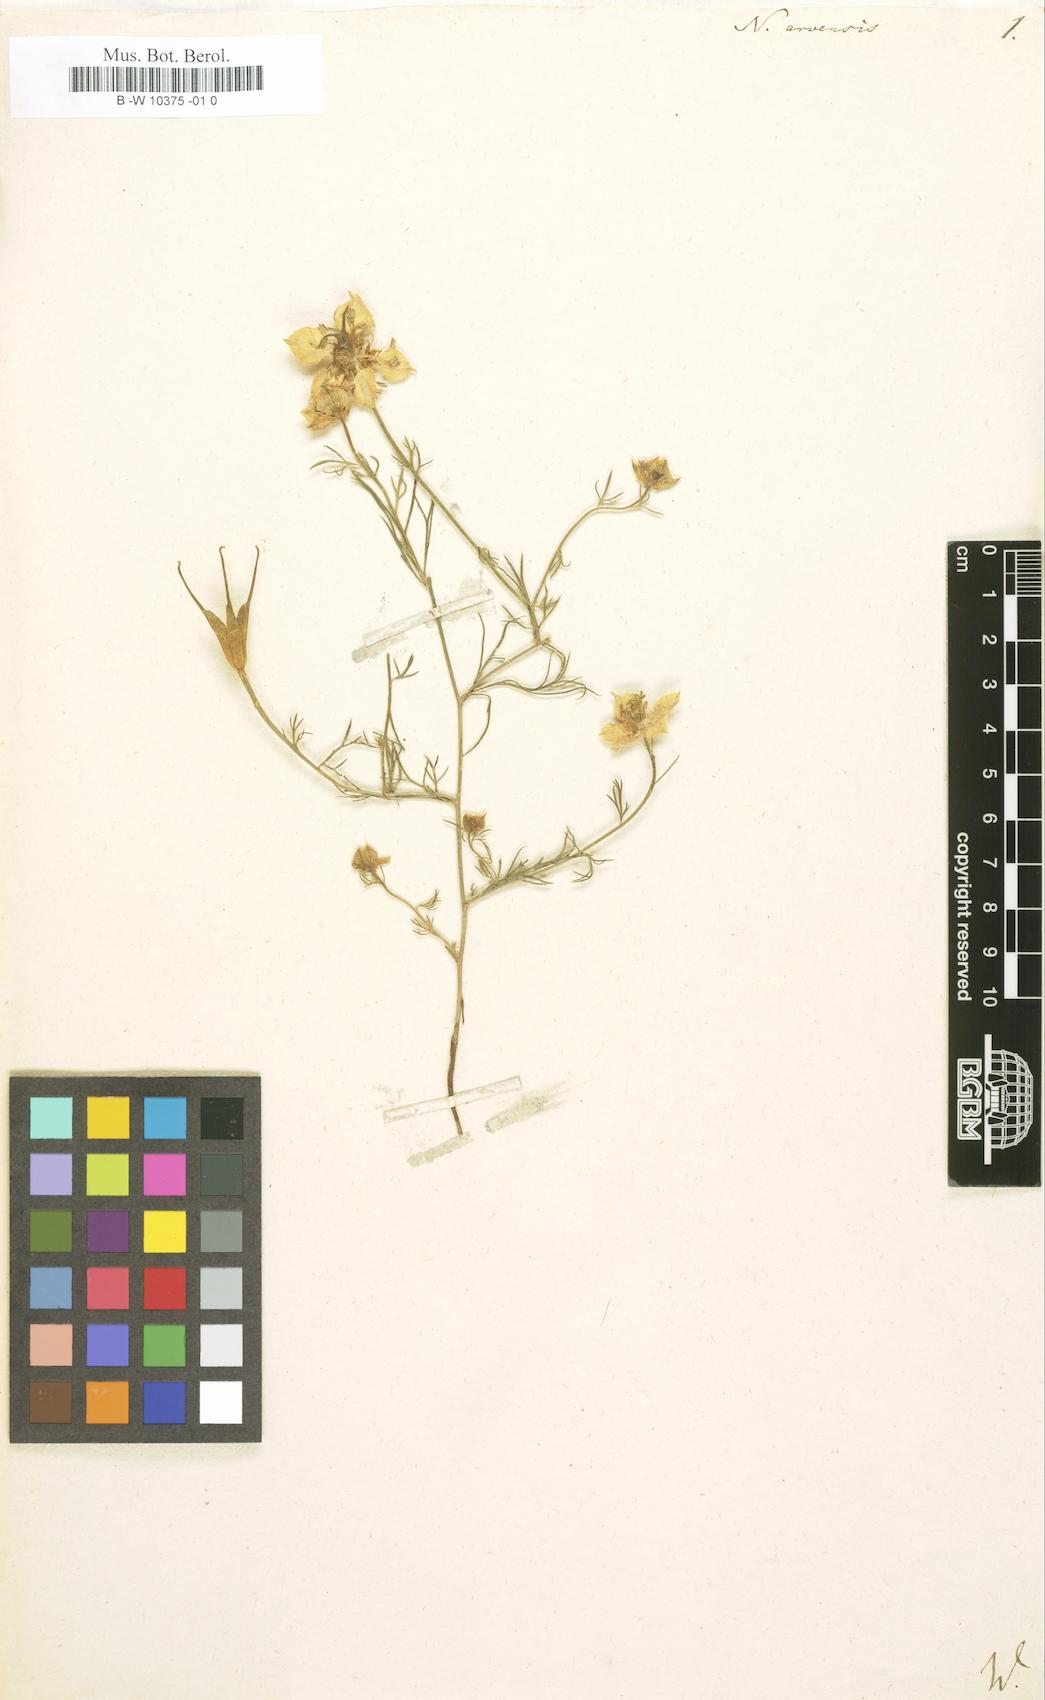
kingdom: Plantae
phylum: Tracheophyta
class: Magnoliopsida
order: Ranunculales
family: Ranunculaceae
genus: Nigella
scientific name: Nigella arvensis
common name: Wild fennel-flower
